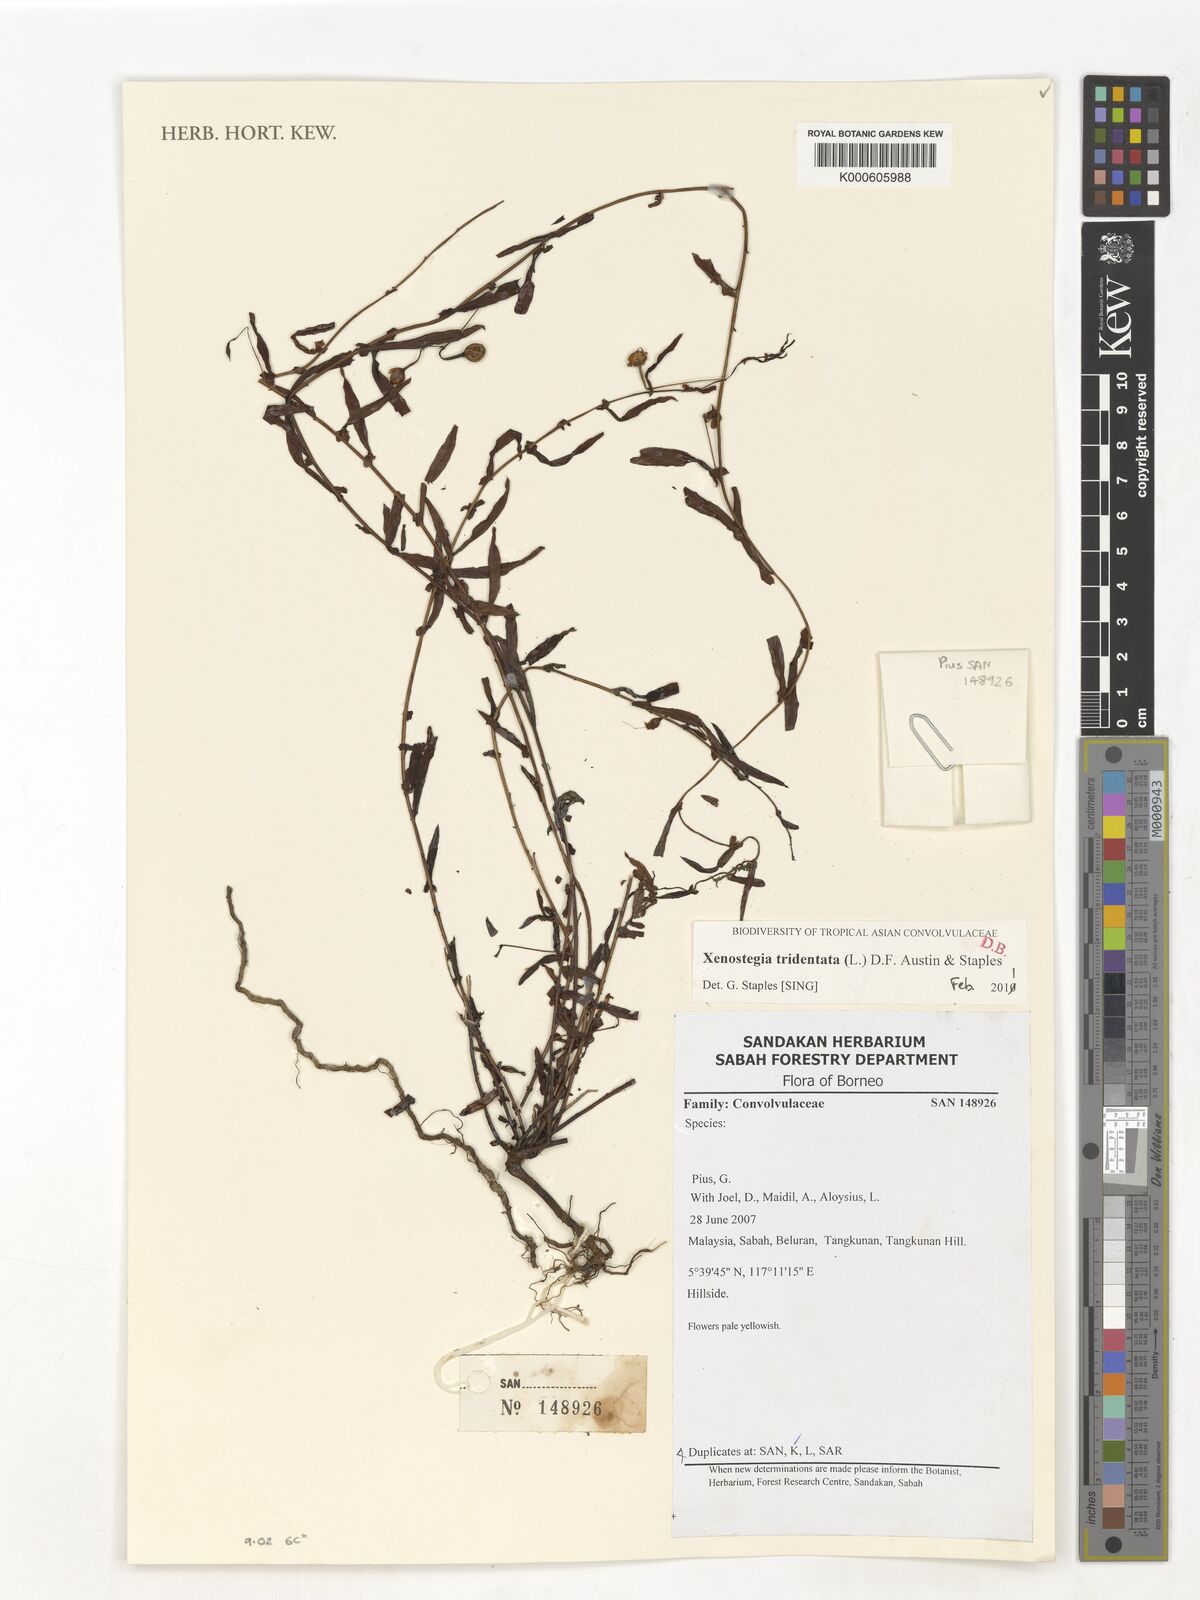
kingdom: Plantae
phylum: Tracheophyta
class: Magnoliopsida
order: Solanales
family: Convolvulaceae
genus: Xenostegia
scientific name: Xenostegia tridentata
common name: African morningvine
